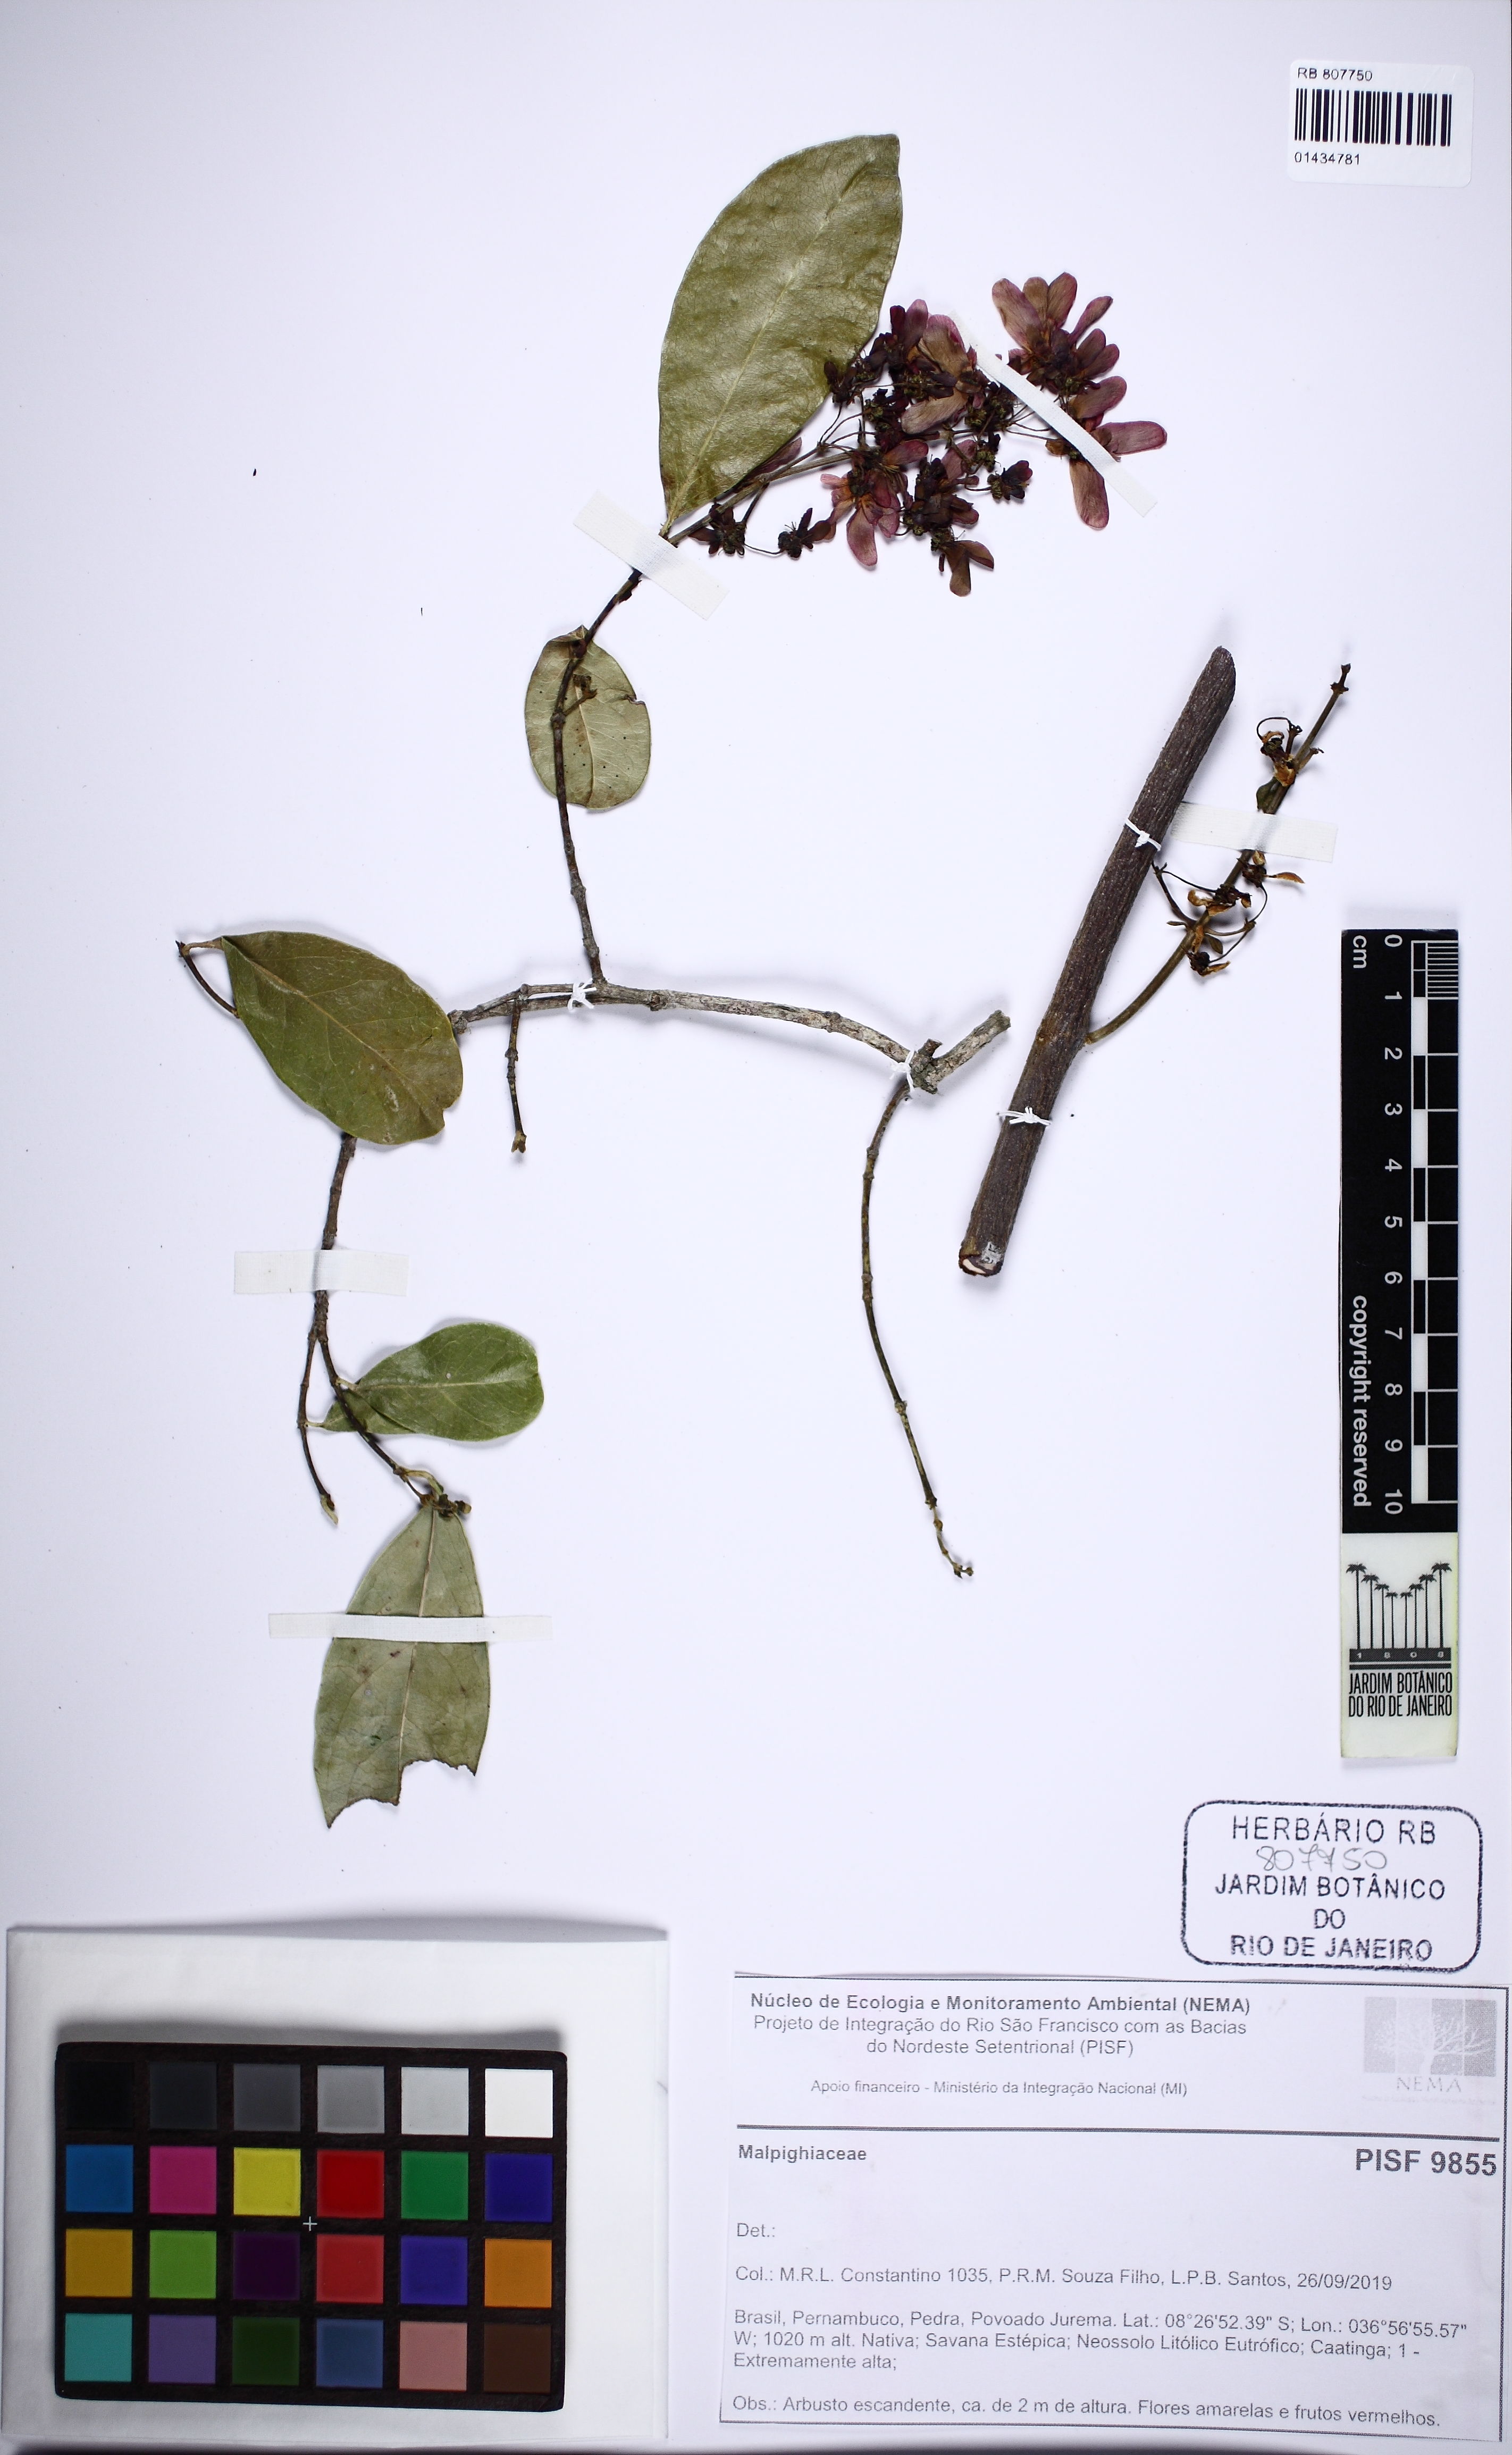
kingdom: Plantae
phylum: Tracheophyta
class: Magnoliopsida
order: Malpighiales
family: Malpighiaceae
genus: Tetrapterys
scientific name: Tetrapterys
